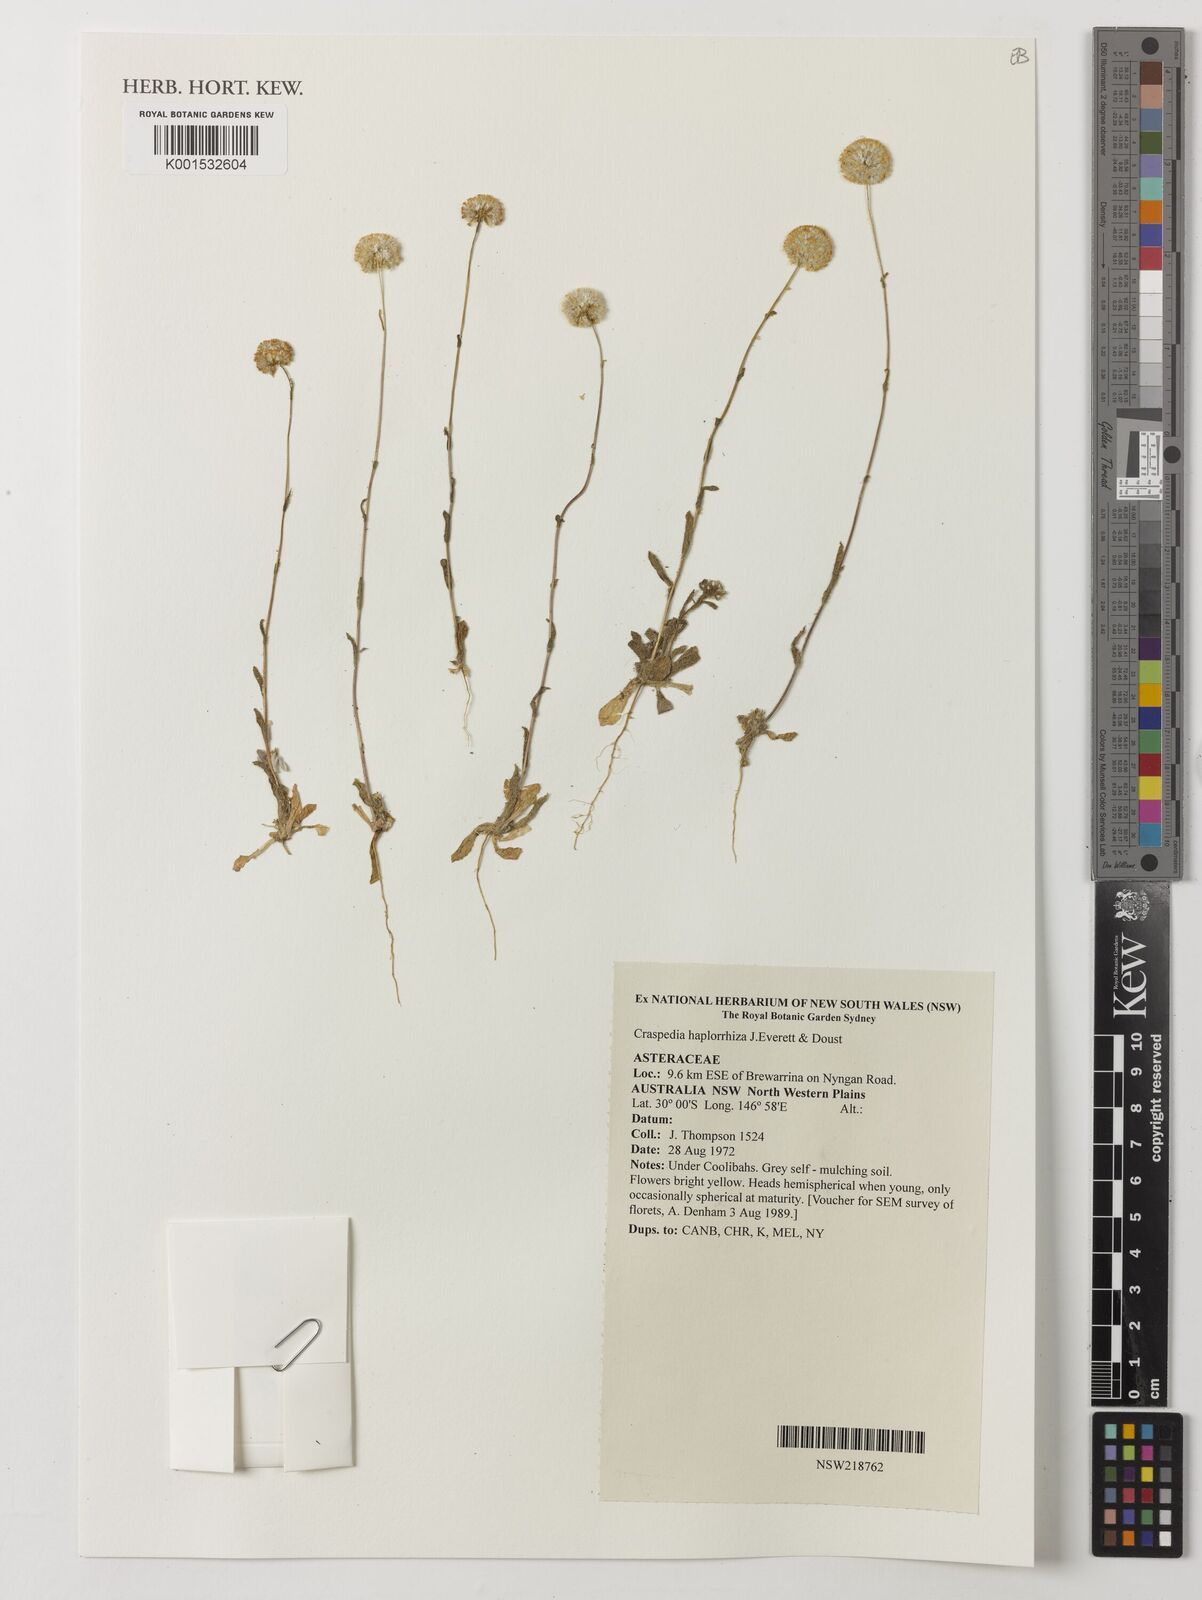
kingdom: Plantae
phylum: Tracheophyta
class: Magnoliopsida
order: Asterales
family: Asteraceae
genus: Craspedia
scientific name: Craspedia haplorrhiza
